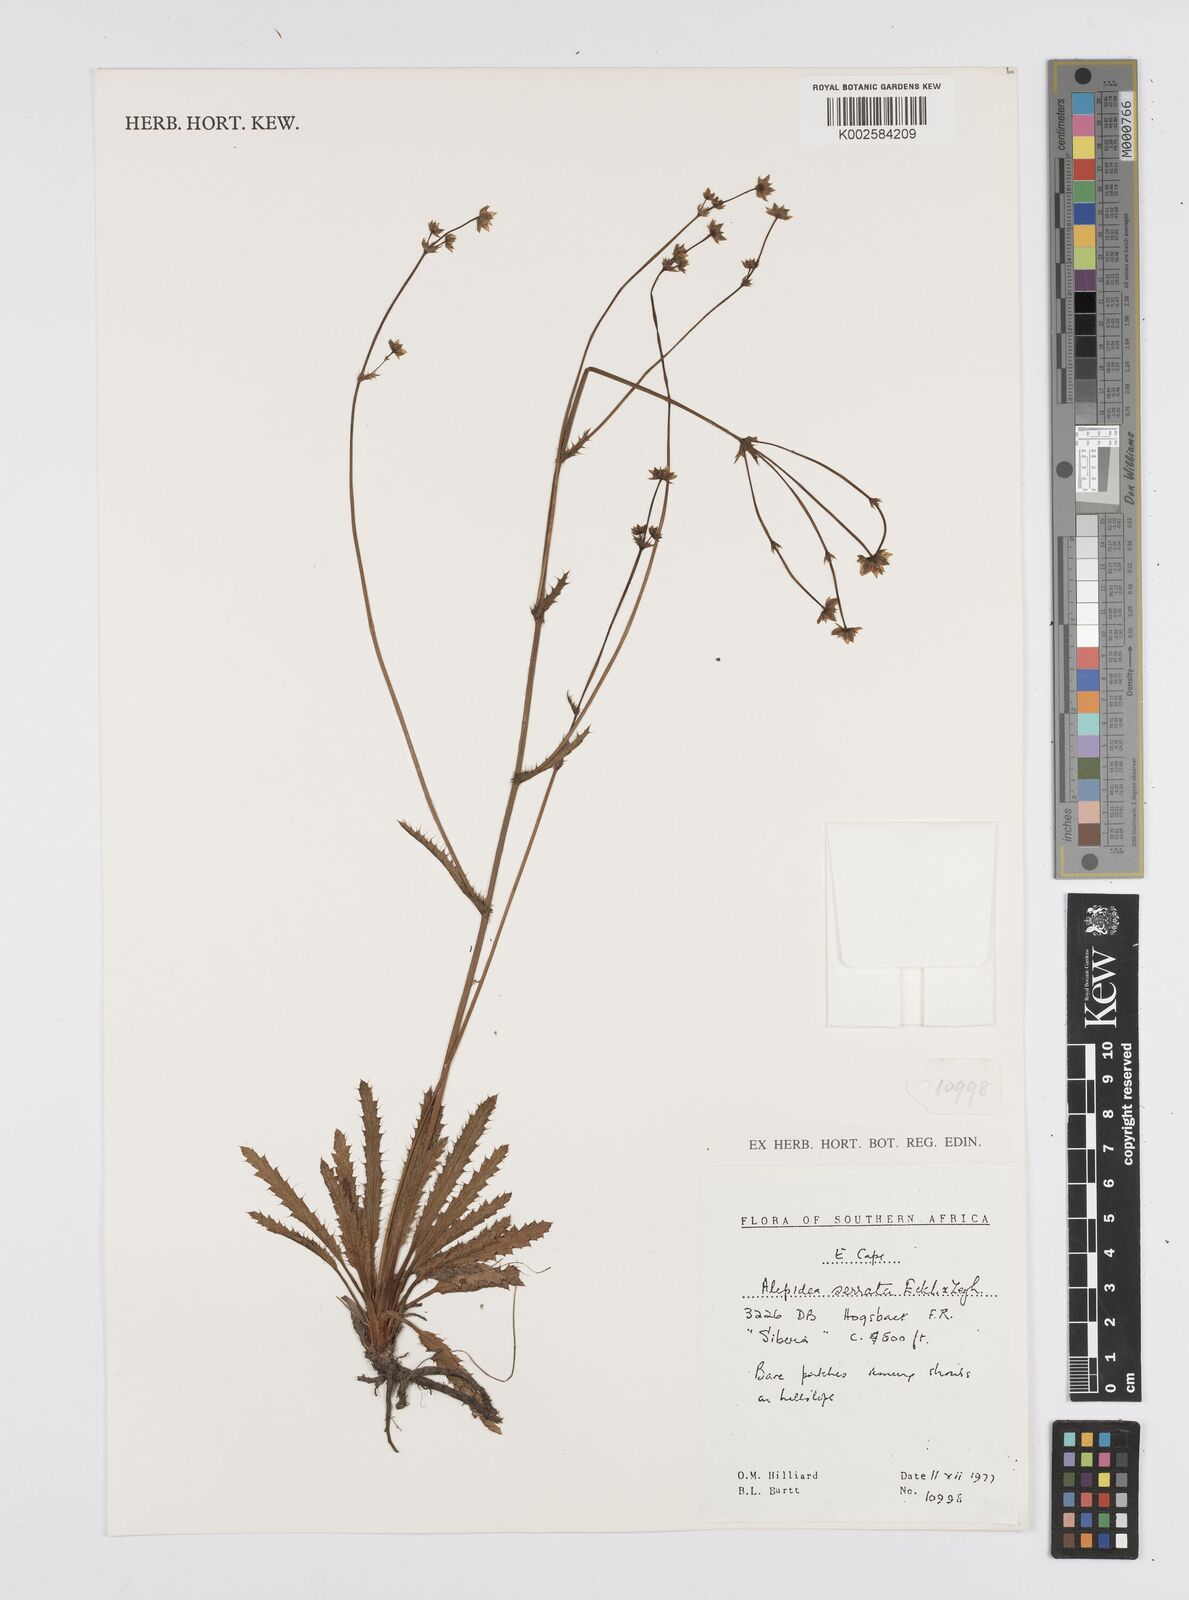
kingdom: Plantae
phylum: Tracheophyta
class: Magnoliopsida
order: Apiales
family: Apiaceae
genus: Alepidea
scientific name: Alepidea serrata
